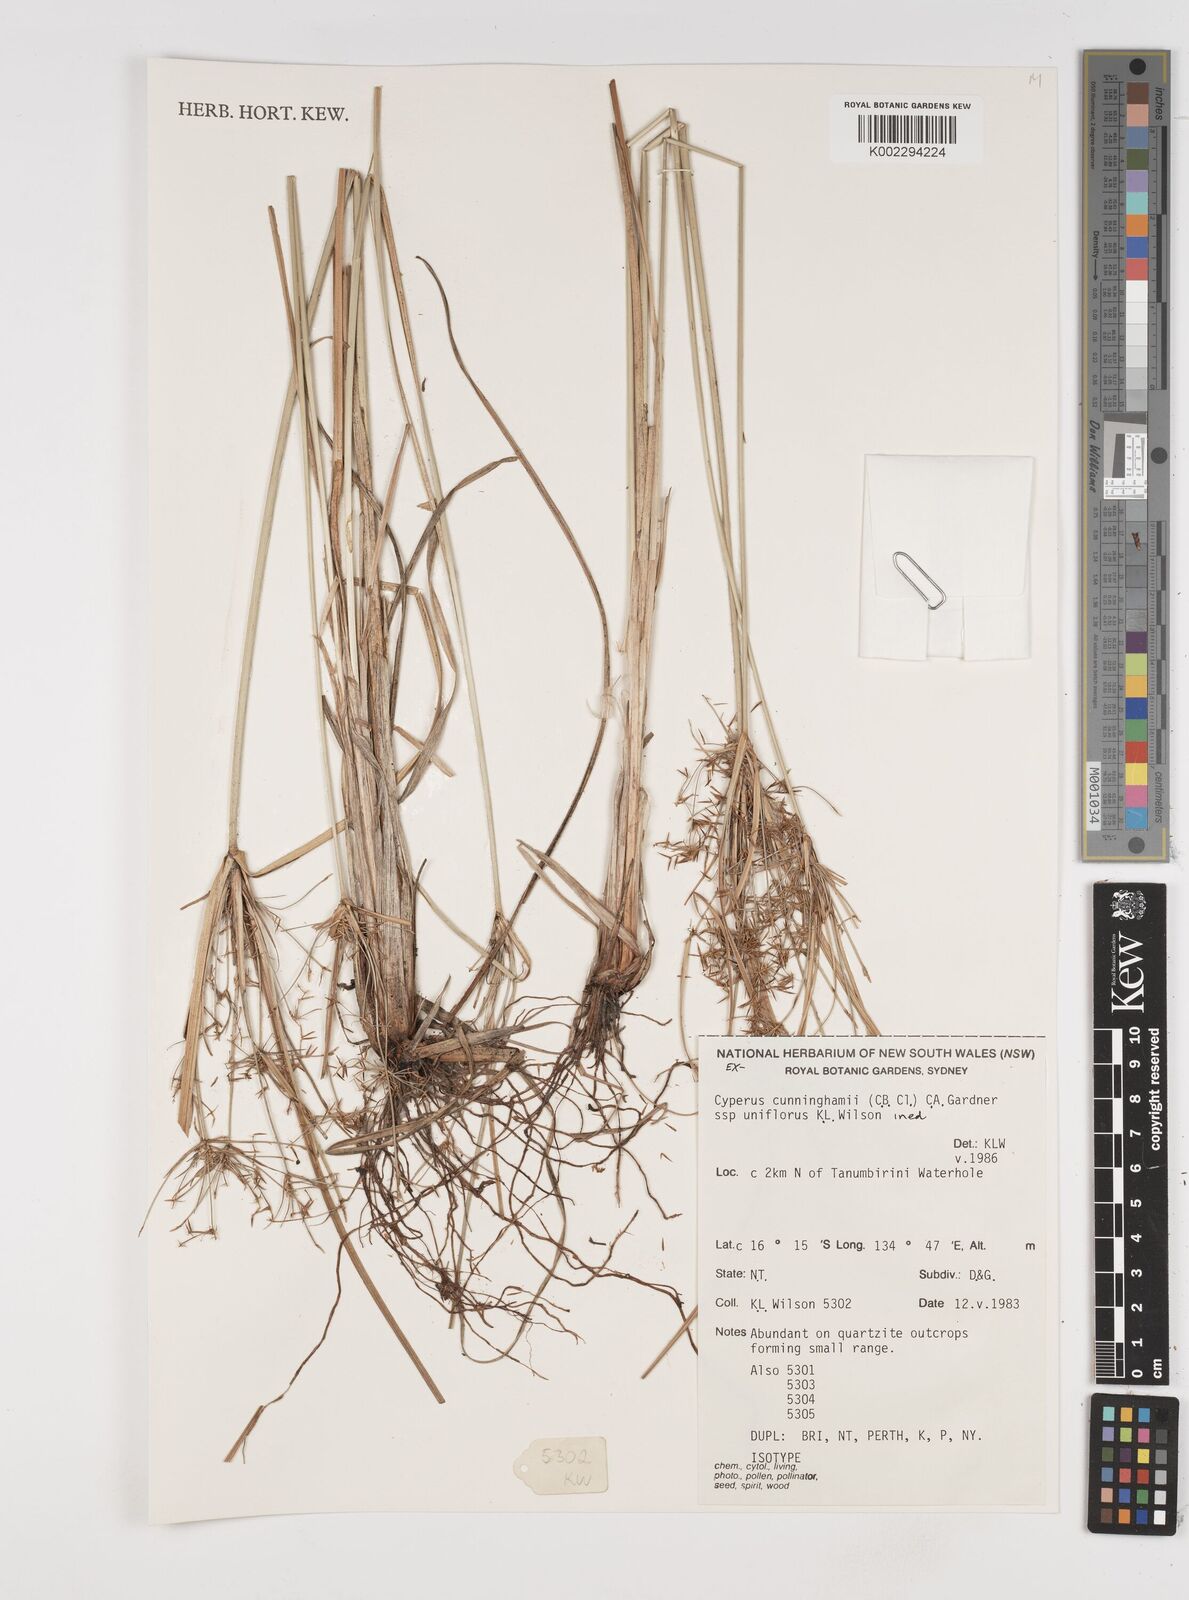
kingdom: Plantae
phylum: Tracheophyta
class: Liliopsida
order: Poales
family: Cyperaceae
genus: Cyperus
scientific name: Cyperus cunninghamii
